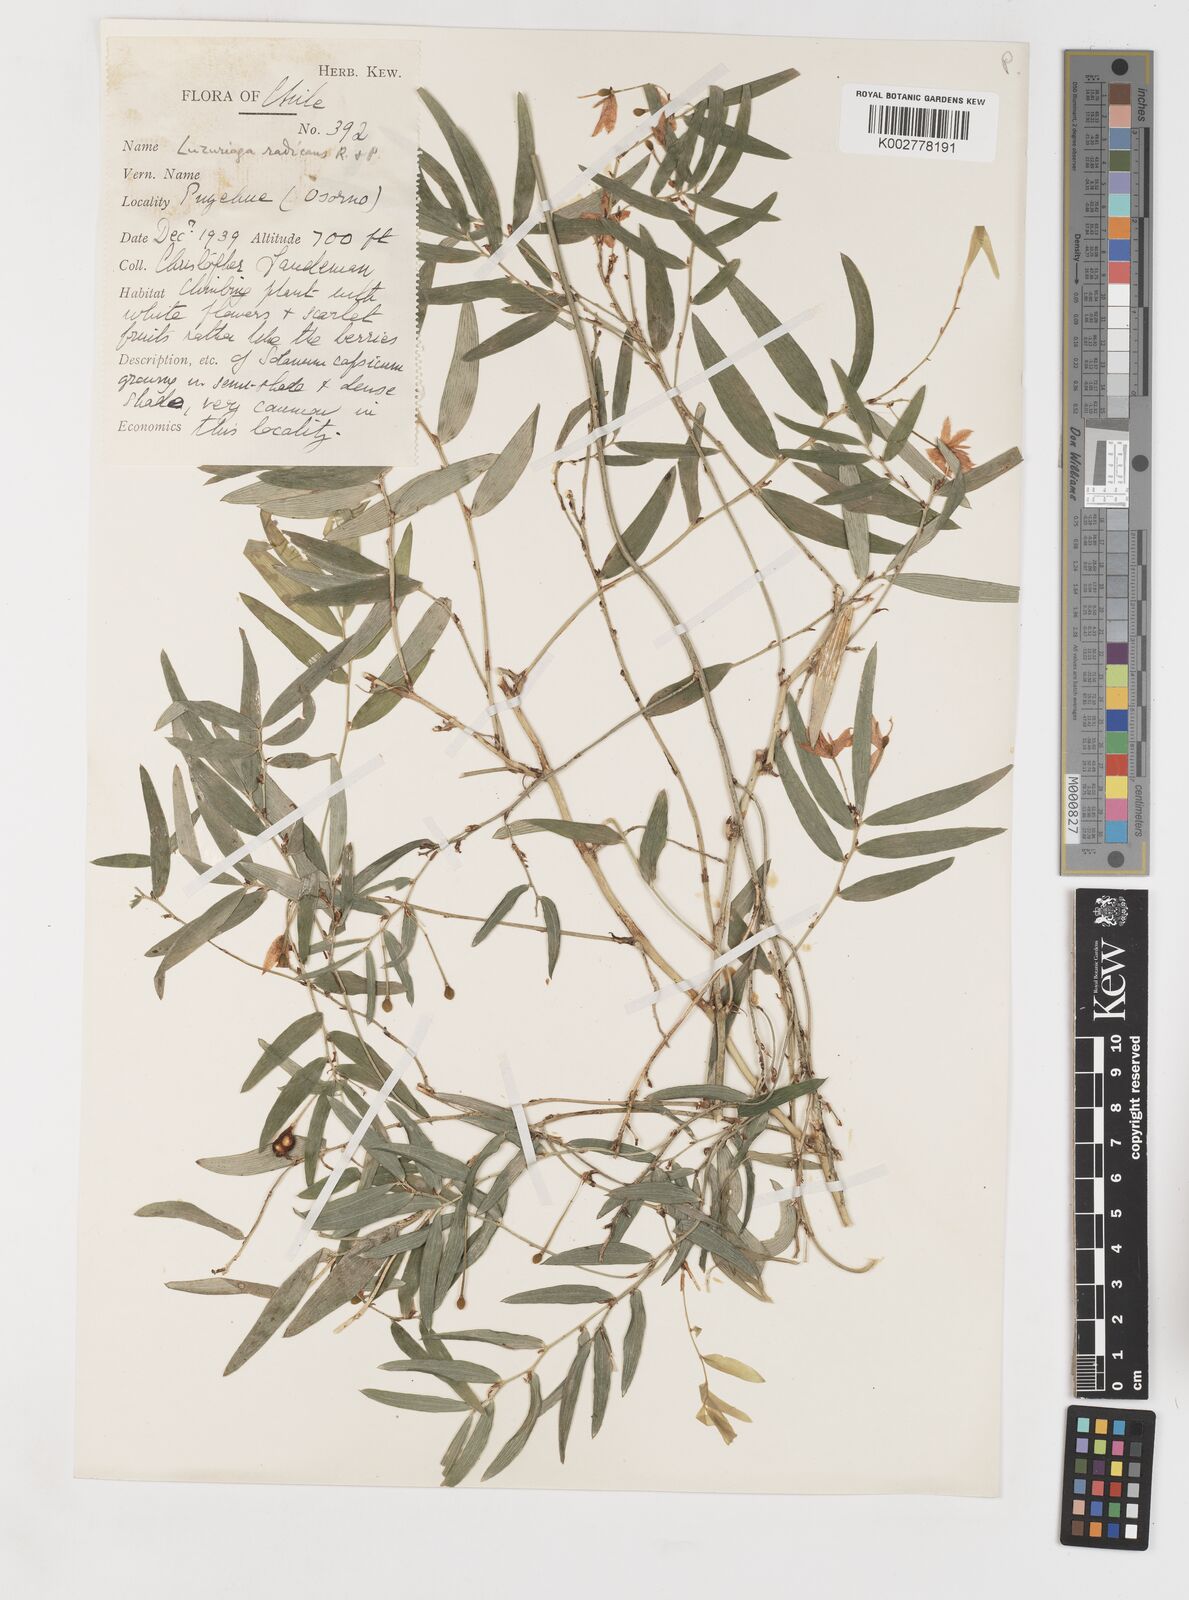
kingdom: Plantae
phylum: Tracheophyta
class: Liliopsida
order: Liliales
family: Alstroemeriaceae
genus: Luzuriaga
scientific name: Luzuriaga radicans
